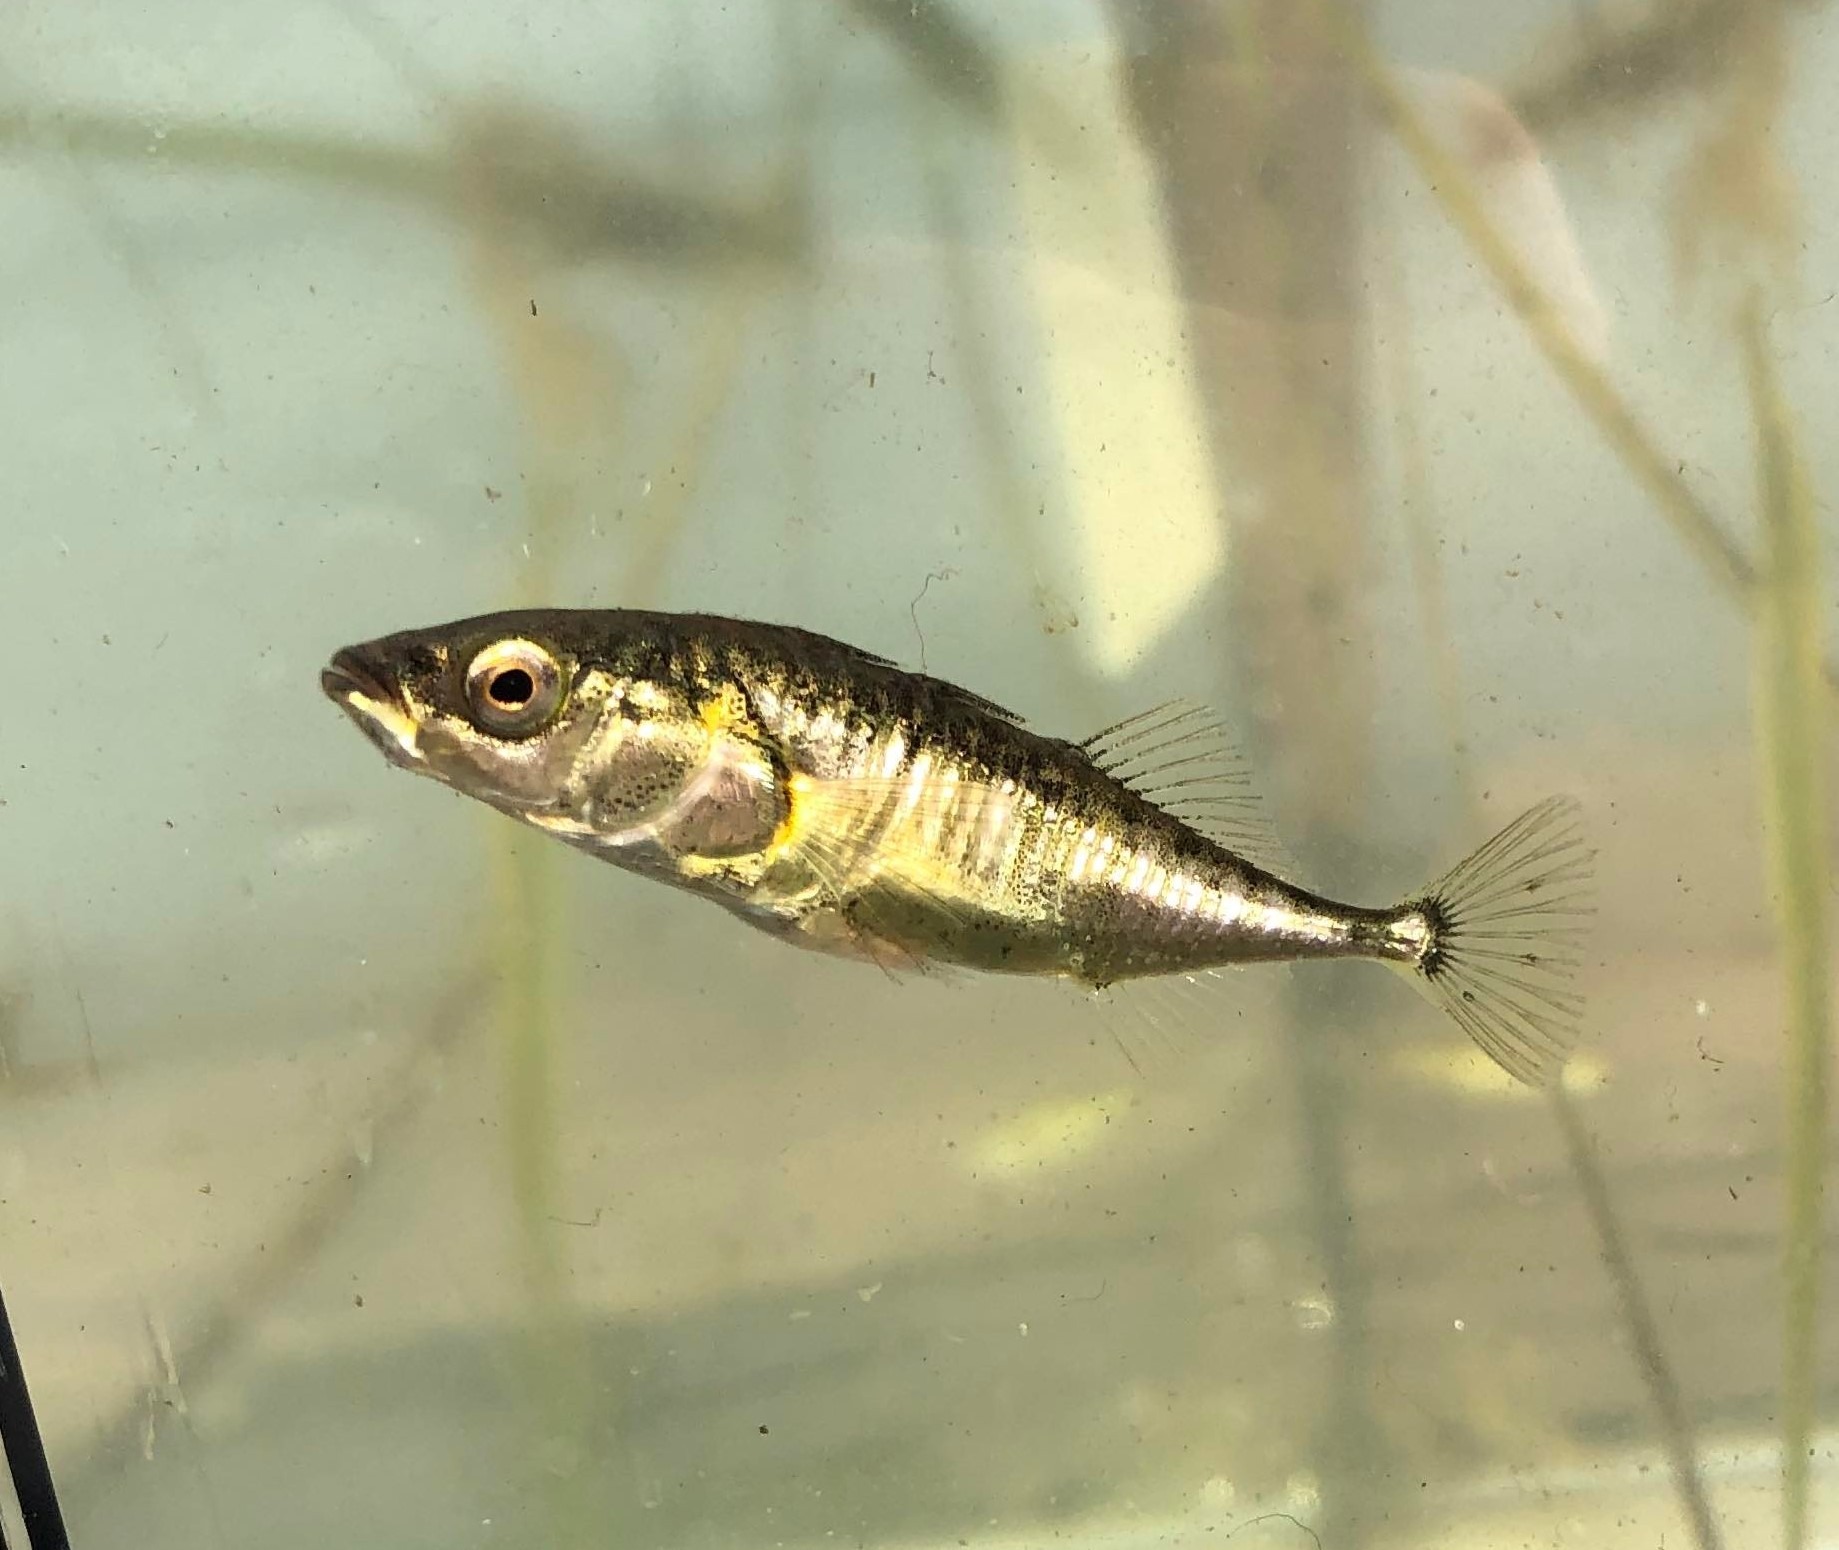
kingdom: Animalia
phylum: Chordata
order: Gasterosteiformes
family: Gasterosteidae
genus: Gasterosteus
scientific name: Gasterosteus aculeatus
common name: Trepigget hundestejle
